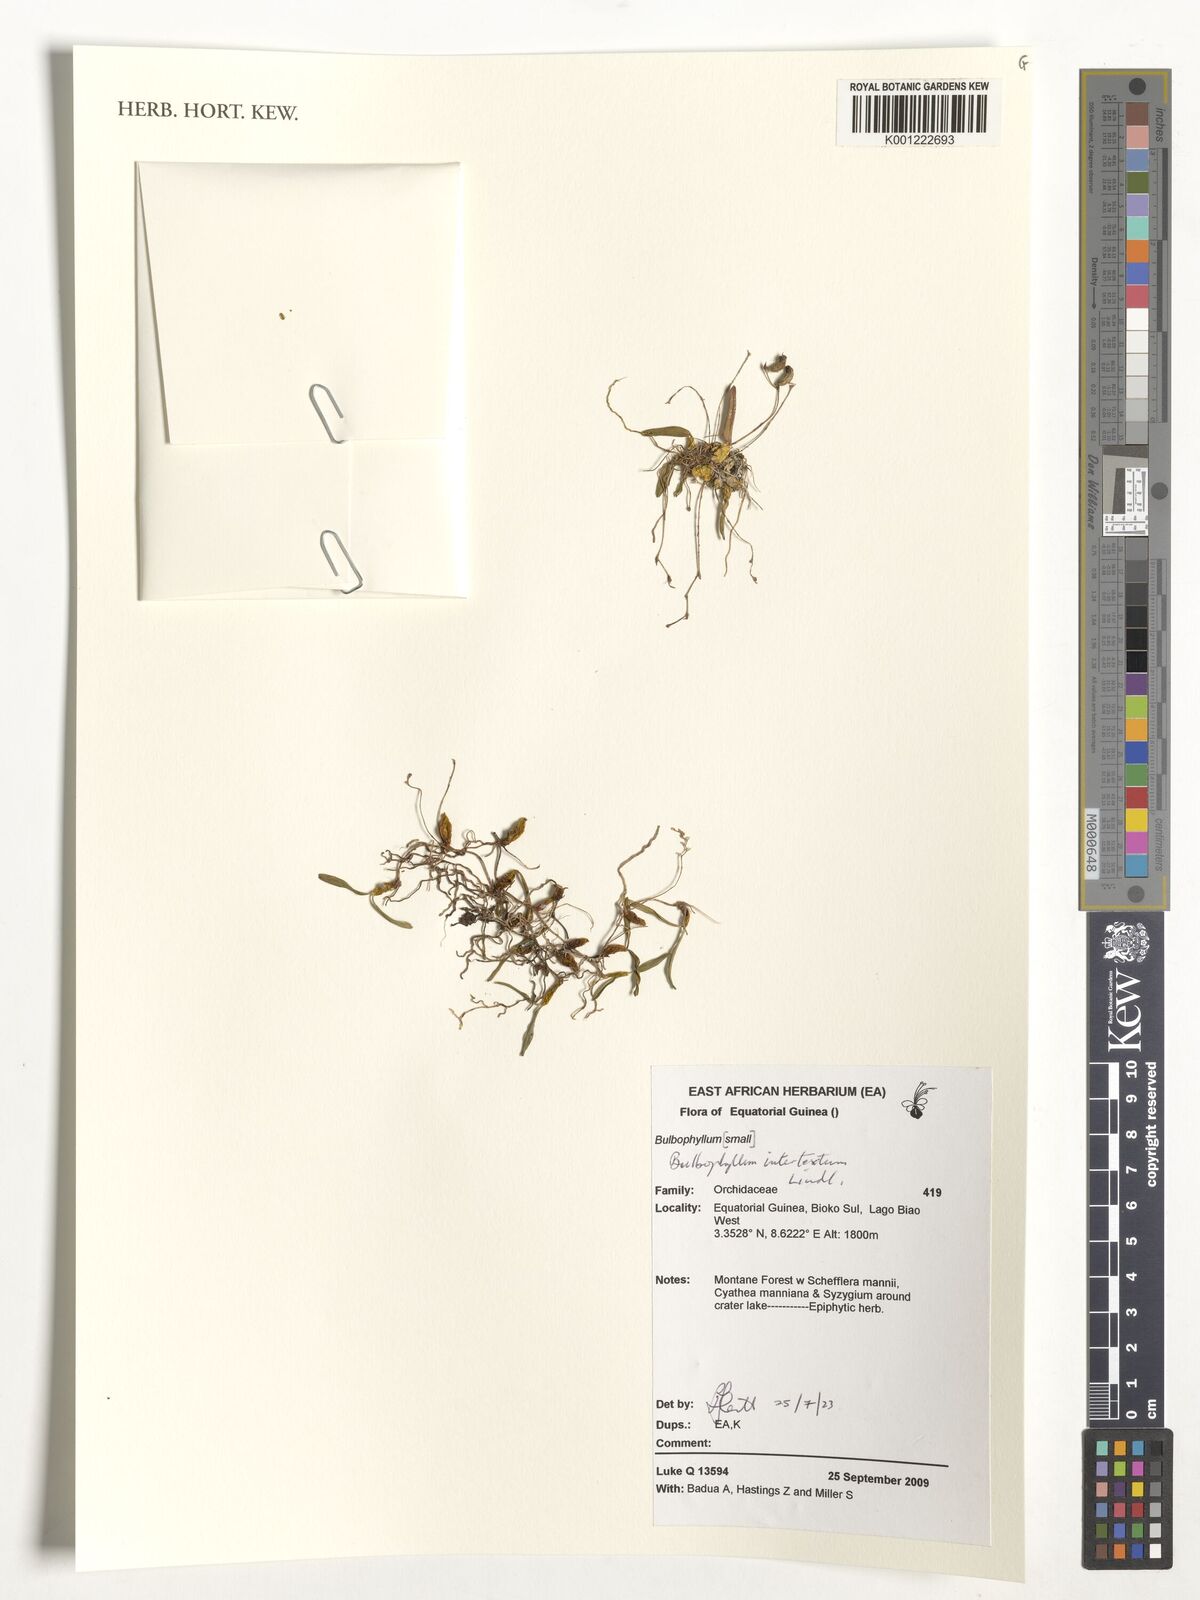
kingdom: Plantae
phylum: Tracheophyta
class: Liliopsida
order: Asparagales
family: Orchidaceae
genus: Bulbophyllum
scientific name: Bulbophyllum intertextum
